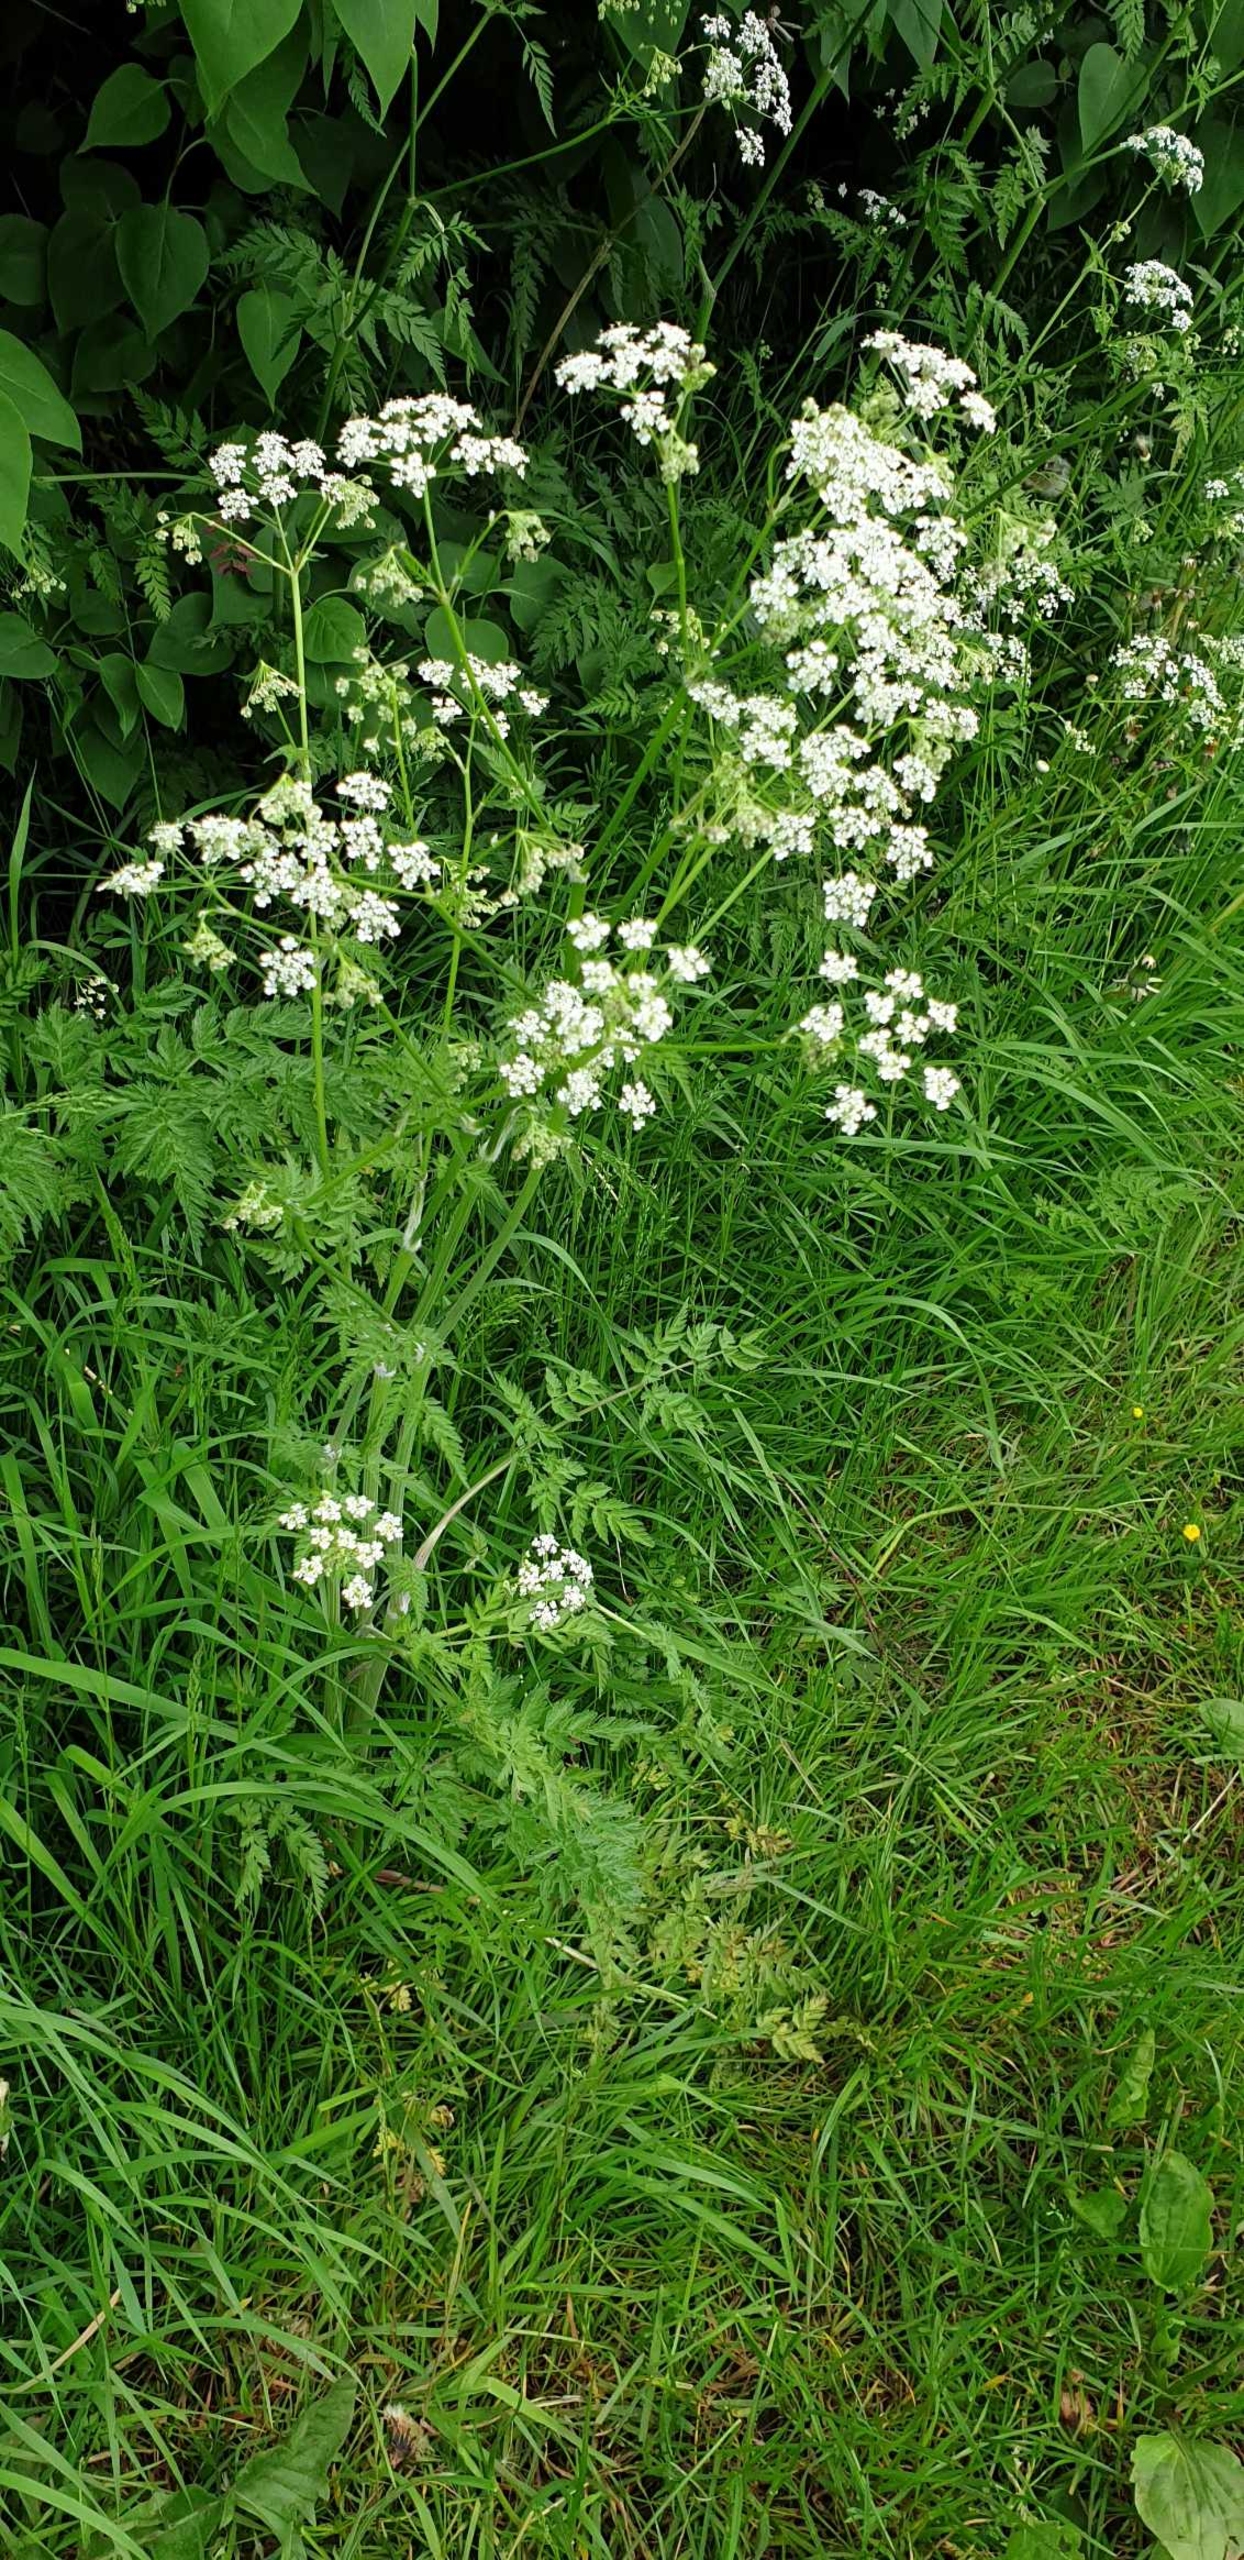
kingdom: Plantae
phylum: Tracheophyta
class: Magnoliopsida
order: Apiales
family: Apiaceae
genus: Anthriscus
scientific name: Anthriscus sylvestris
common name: Vild kørvel
